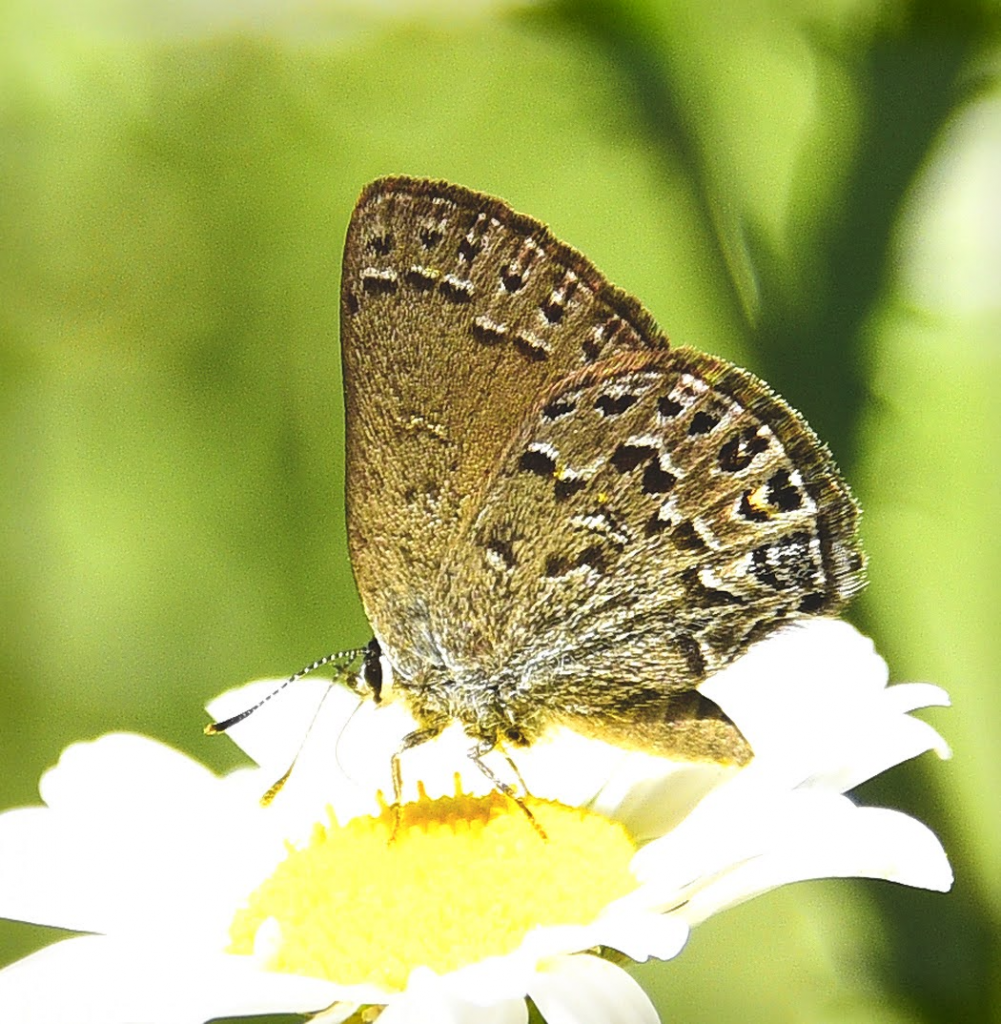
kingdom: Animalia
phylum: Arthropoda
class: Insecta
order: Lepidoptera
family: Lycaenidae
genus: Satyrium
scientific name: Satyrium behrii
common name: Behr's Hairstreak
